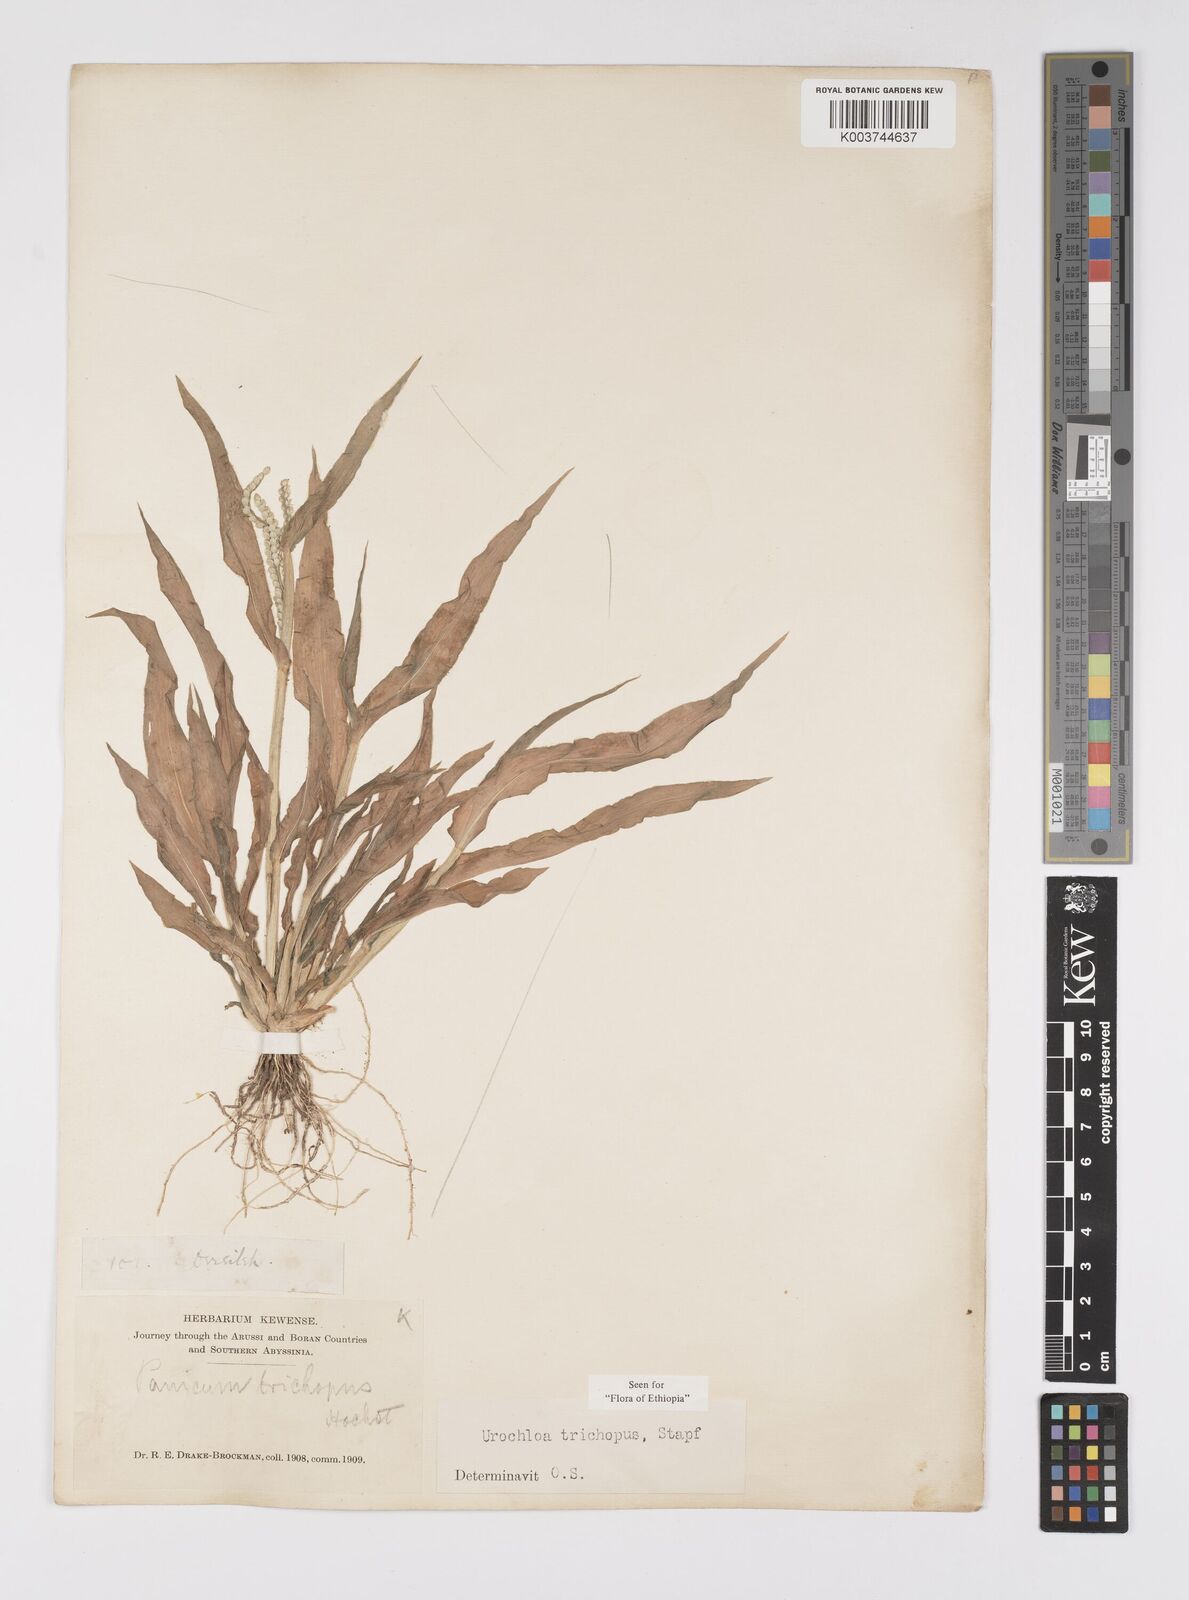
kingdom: Plantae
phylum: Tracheophyta
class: Liliopsida
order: Poales
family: Poaceae
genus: Urochloa
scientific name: Urochloa trichopus
